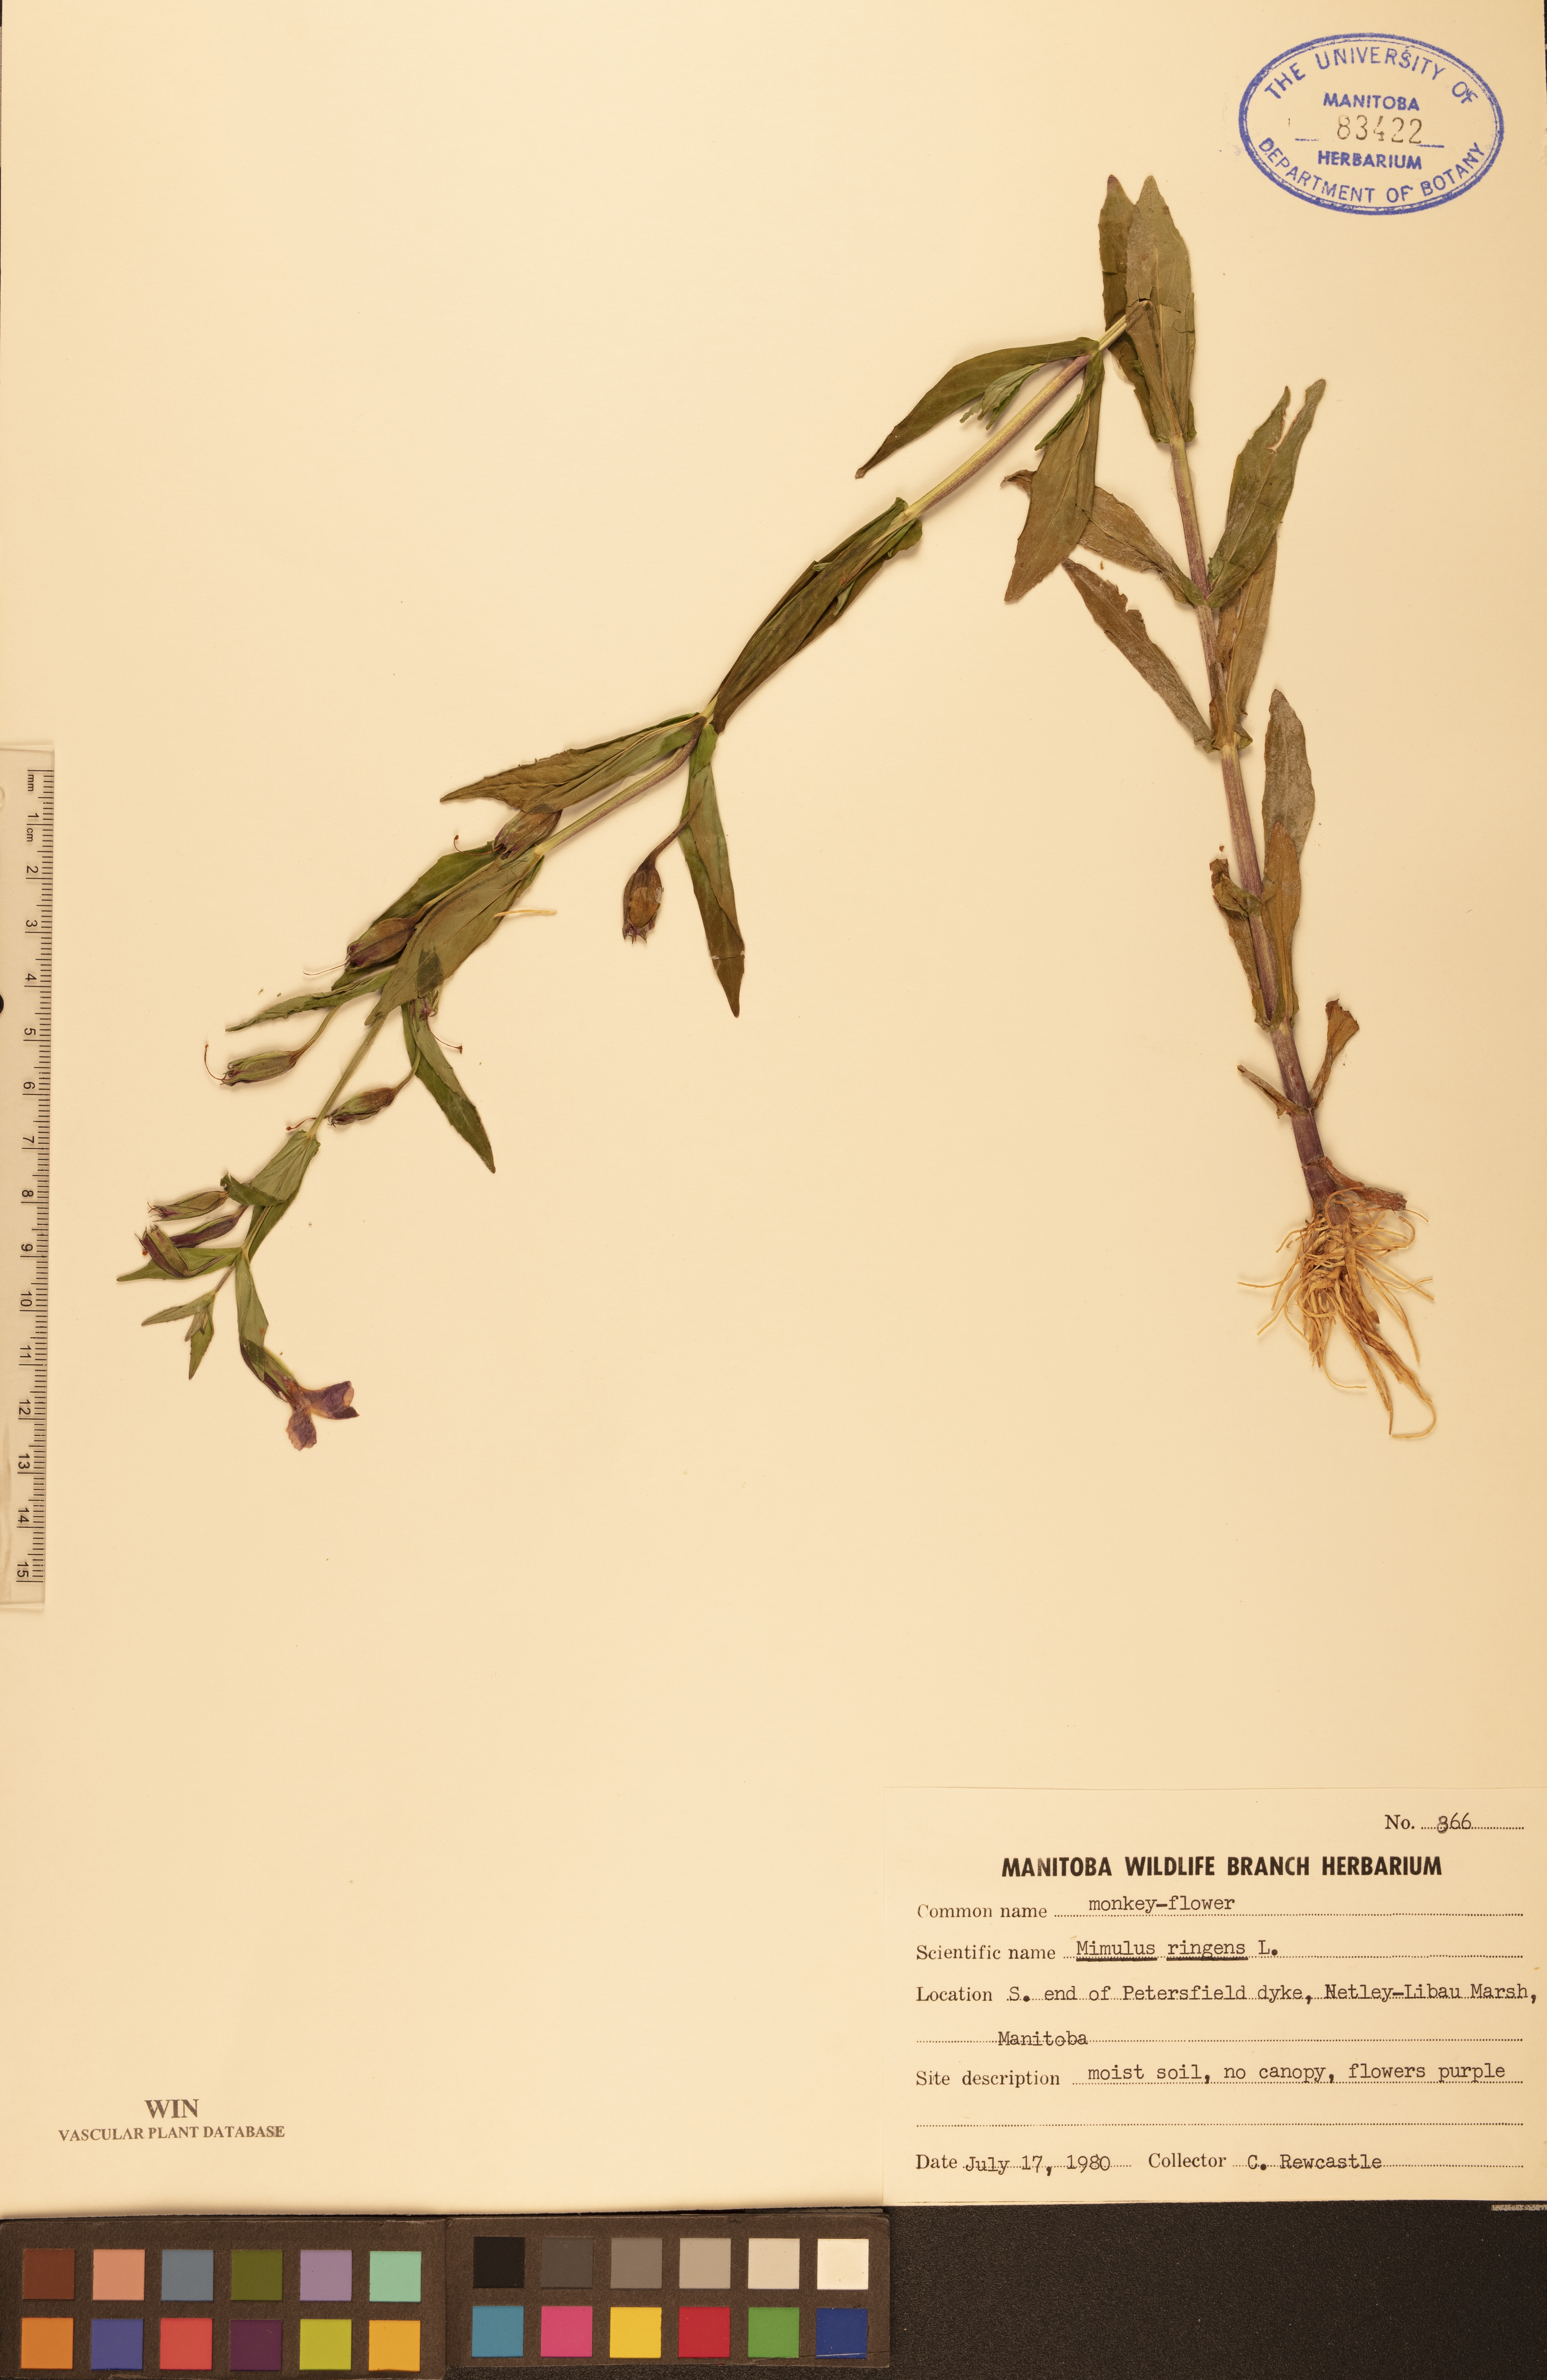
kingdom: Plantae
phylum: Tracheophyta
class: Magnoliopsida
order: Lamiales
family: Phrymaceae
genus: Mimulus
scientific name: Mimulus ringens
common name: Allegheny monkeyflower
